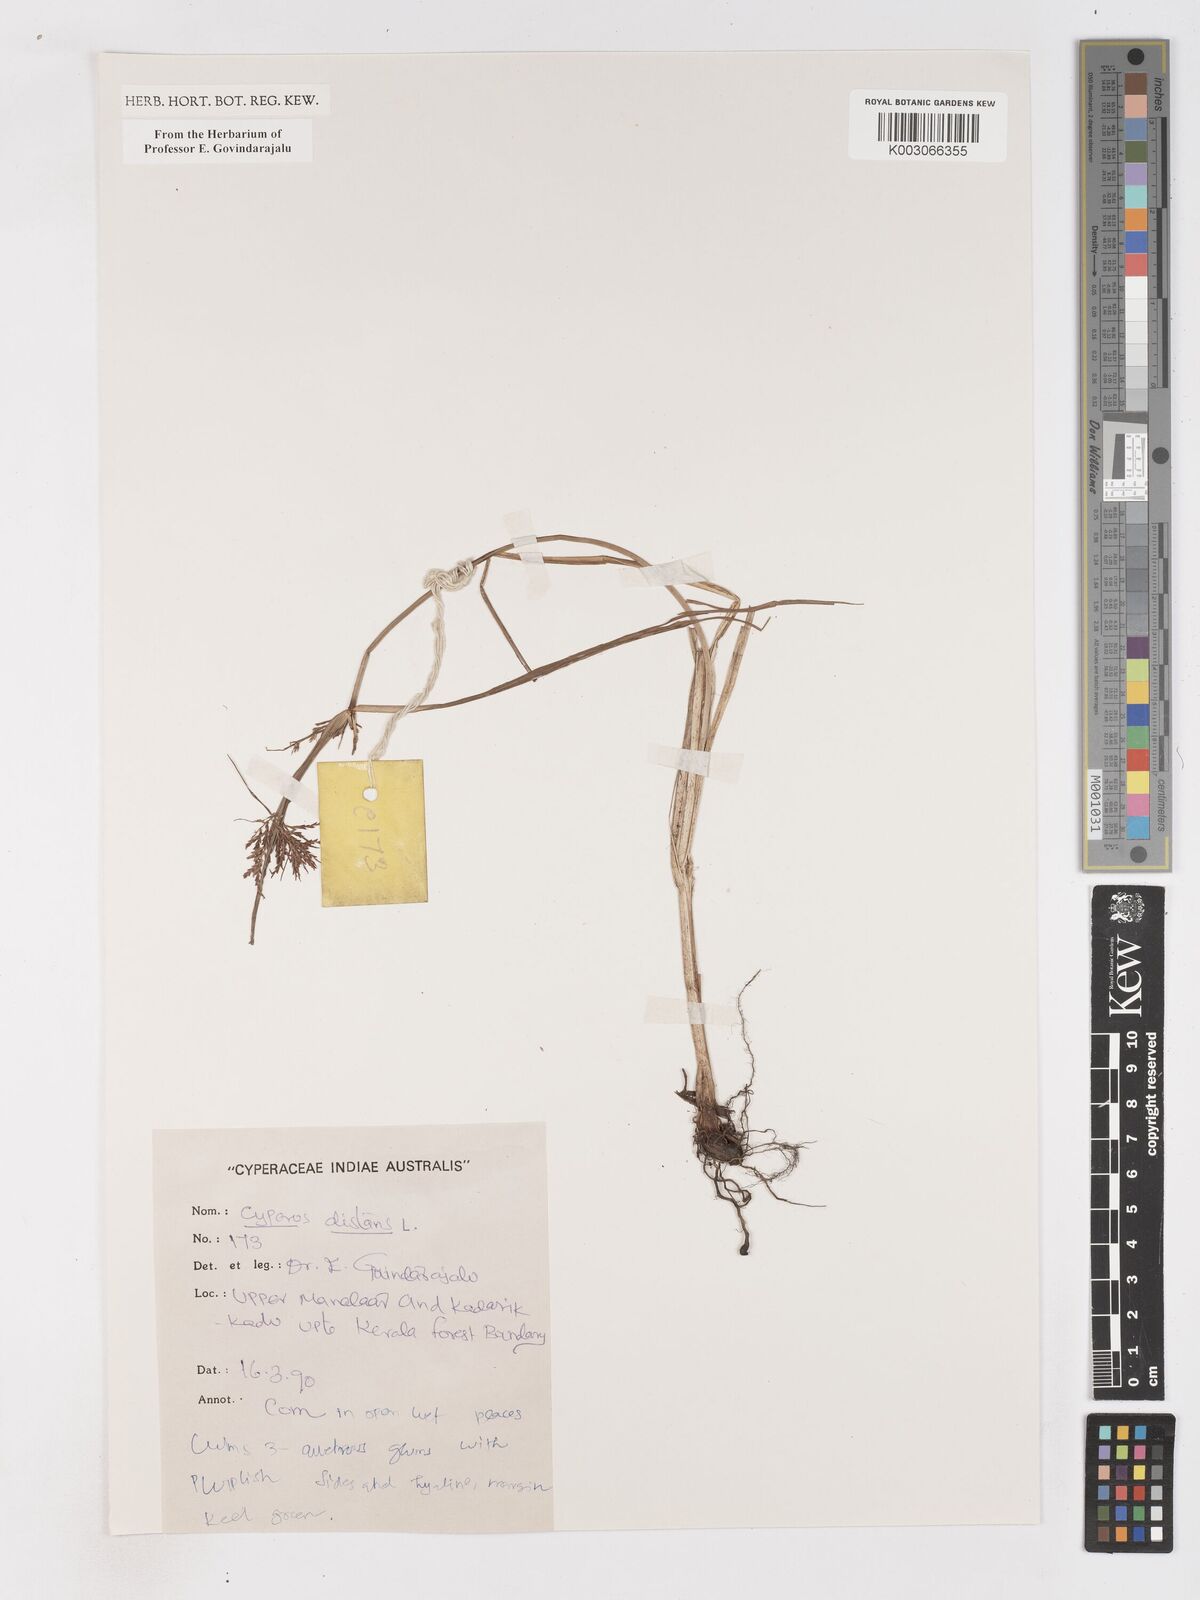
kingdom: Plantae
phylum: Tracheophyta
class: Liliopsida
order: Poales
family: Cyperaceae
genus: Cyperus
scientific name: Cyperus distans
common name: Slender cyperus
